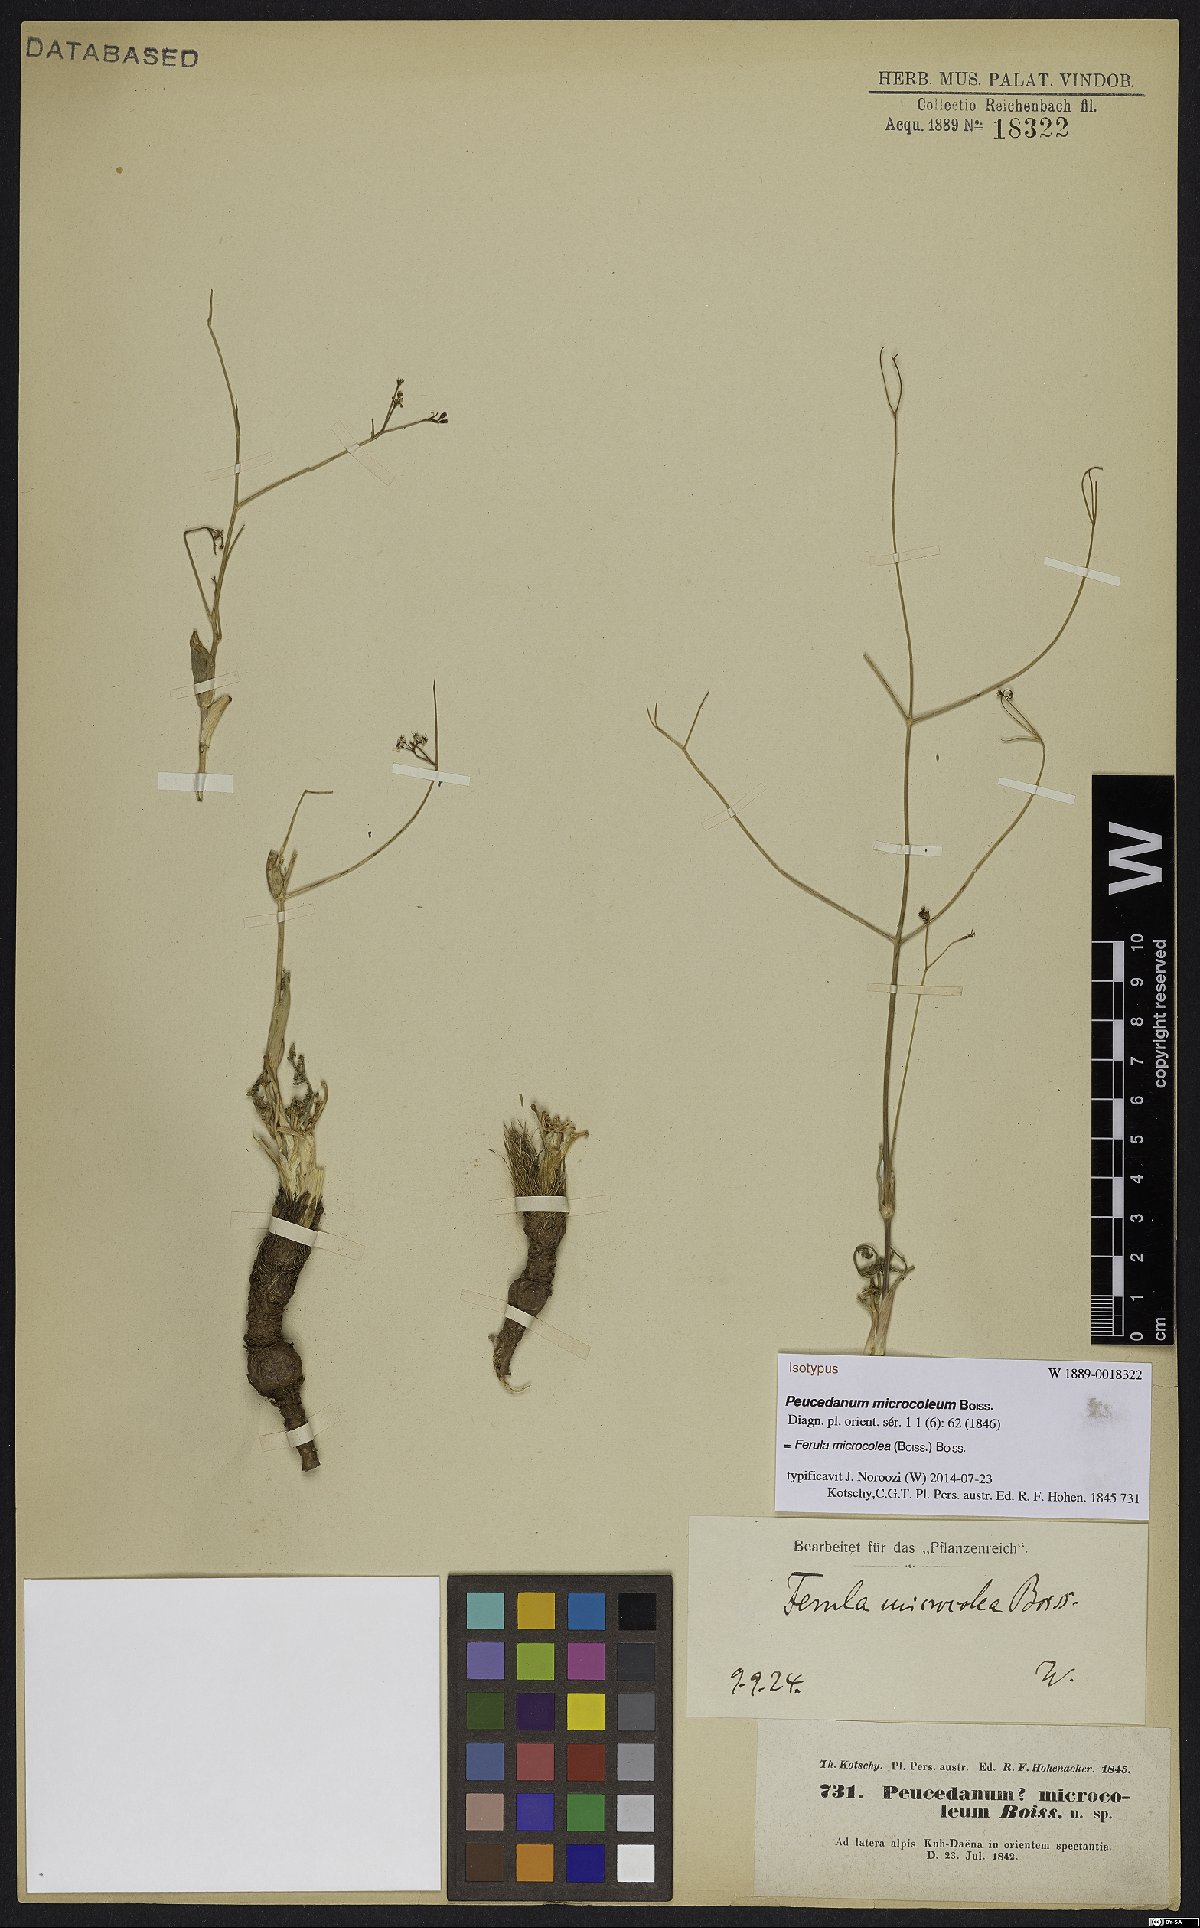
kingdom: Plantae
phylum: Tracheophyta
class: Magnoliopsida
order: Apiales
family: Apiaceae
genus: Ferula
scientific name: Ferula microcolea
